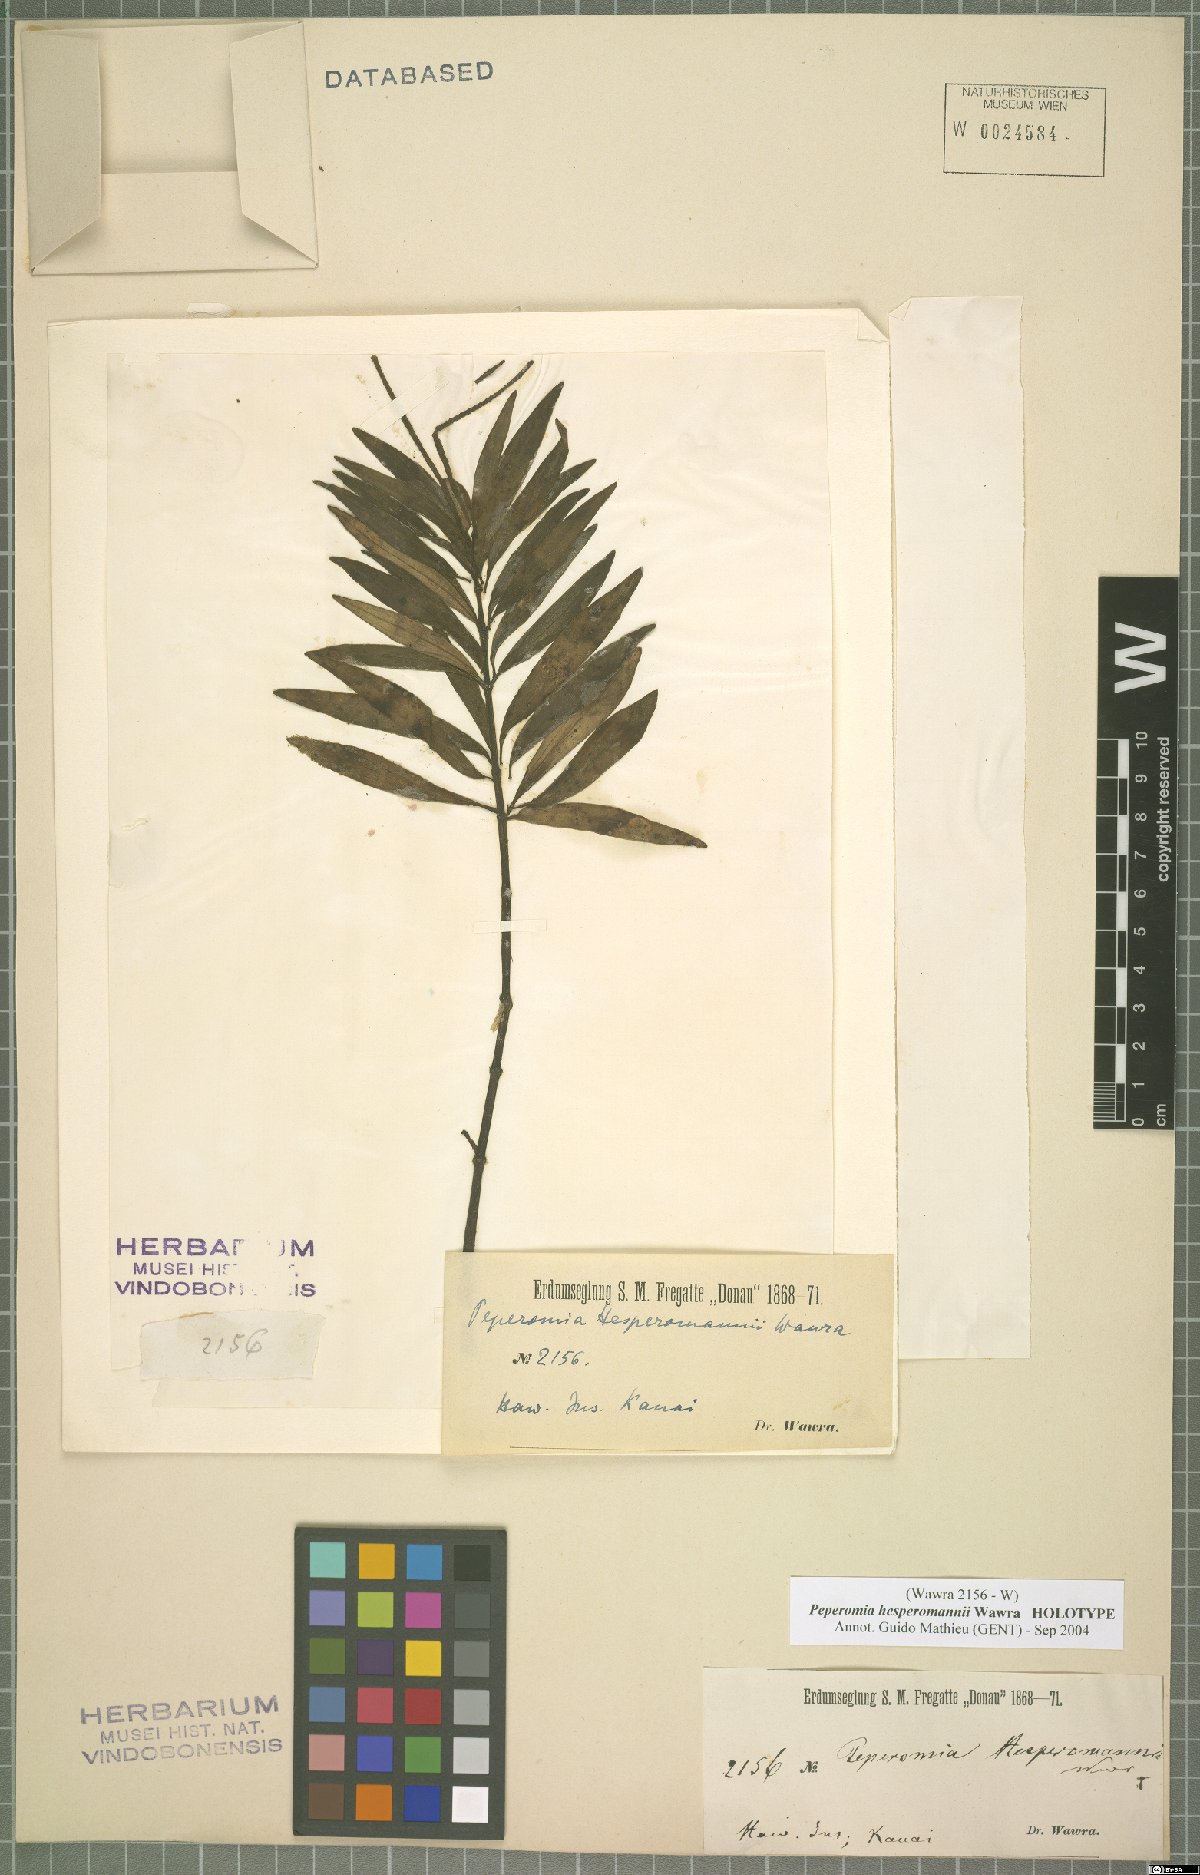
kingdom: Plantae
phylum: Tracheophyta
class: Magnoliopsida
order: Piperales
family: Piperaceae
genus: Peperomia
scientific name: Peperomia hesperomannii
